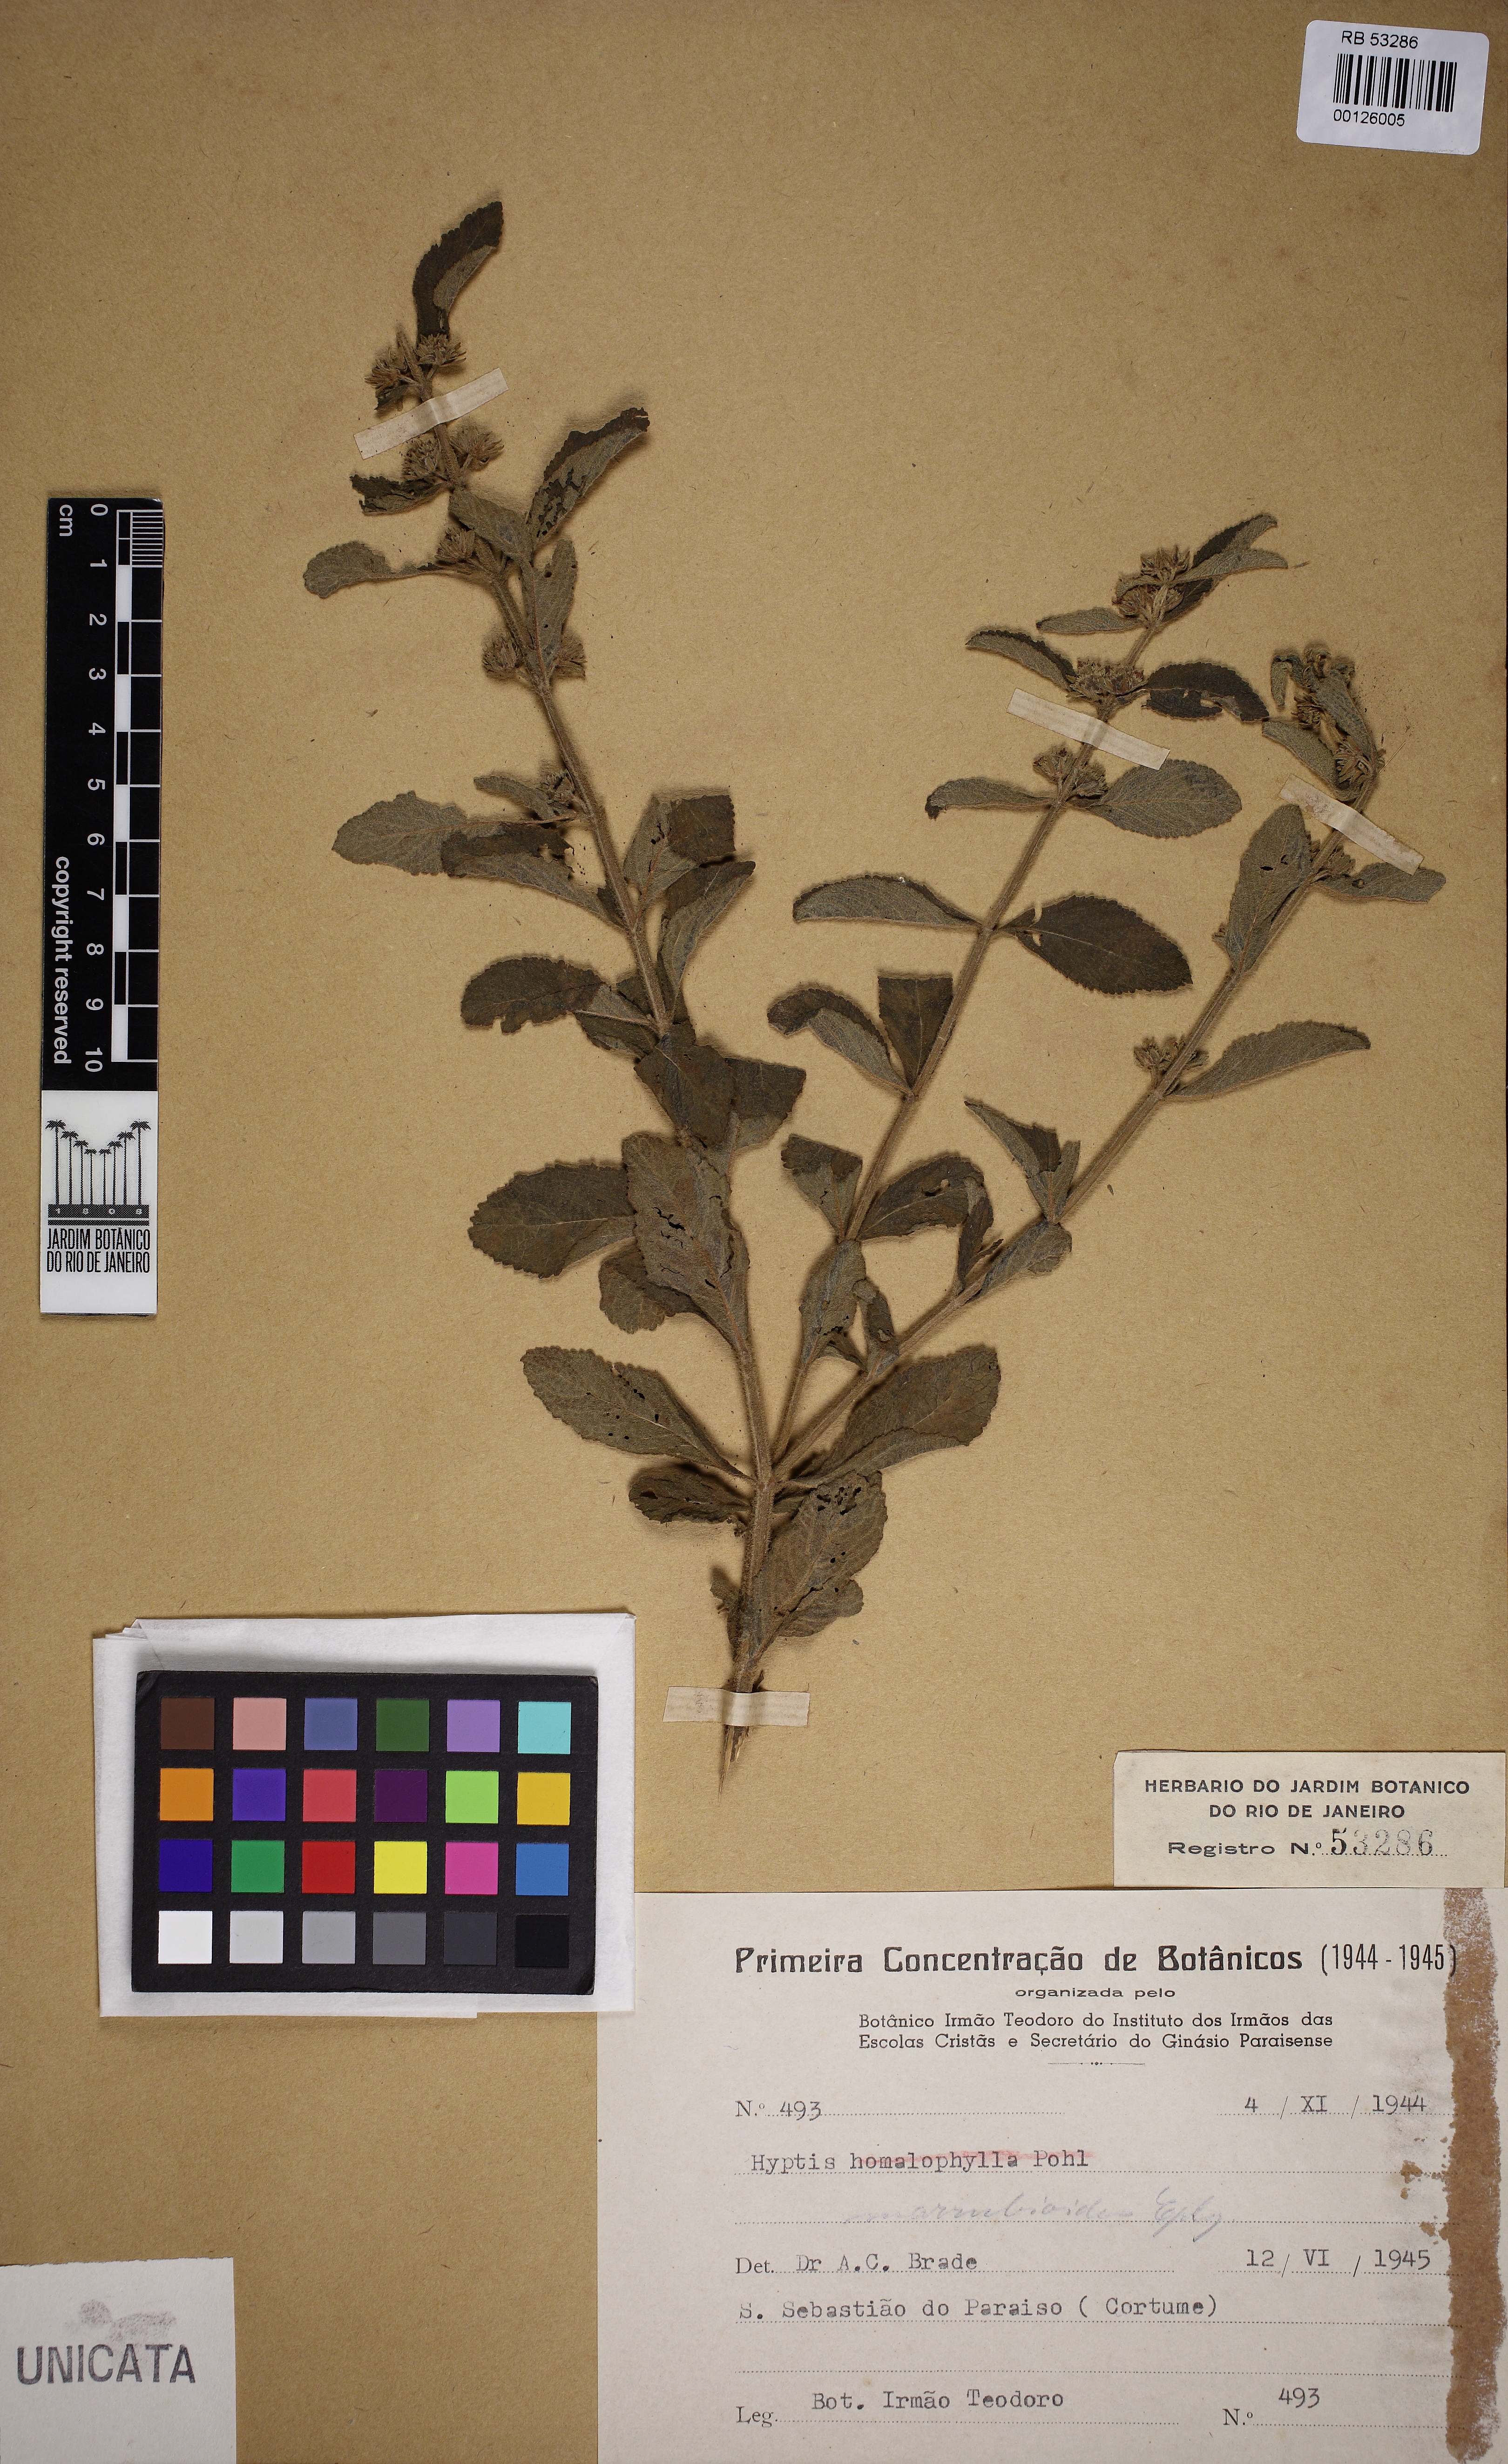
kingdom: Plantae
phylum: Tracheophyta
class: Magnoliopsida
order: Lamiales
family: Lamiaceae
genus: Hyptis
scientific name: Hyptis marrubioides
